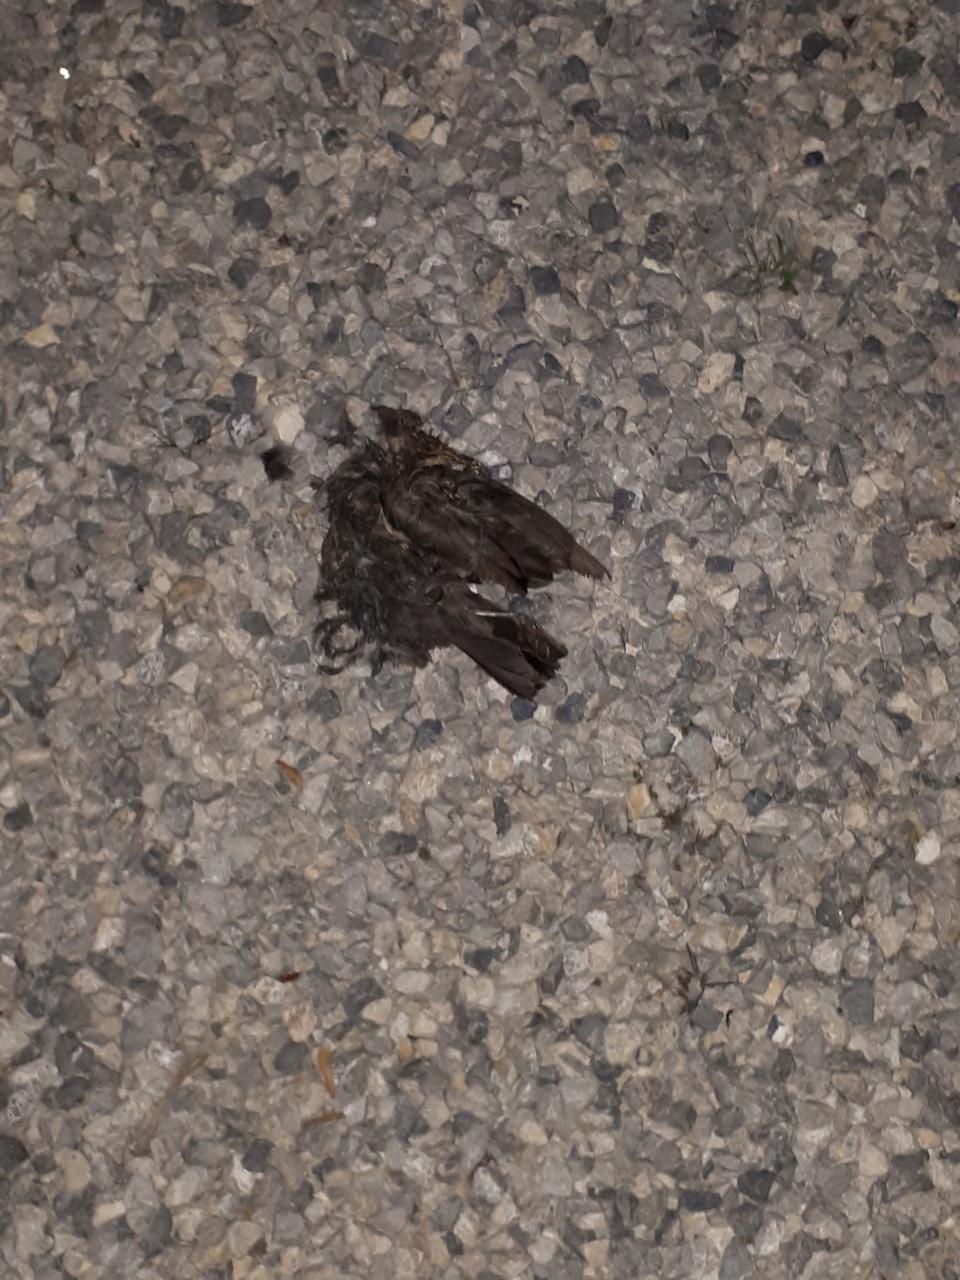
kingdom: Animalia
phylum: Chordata
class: Aves
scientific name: Aves
